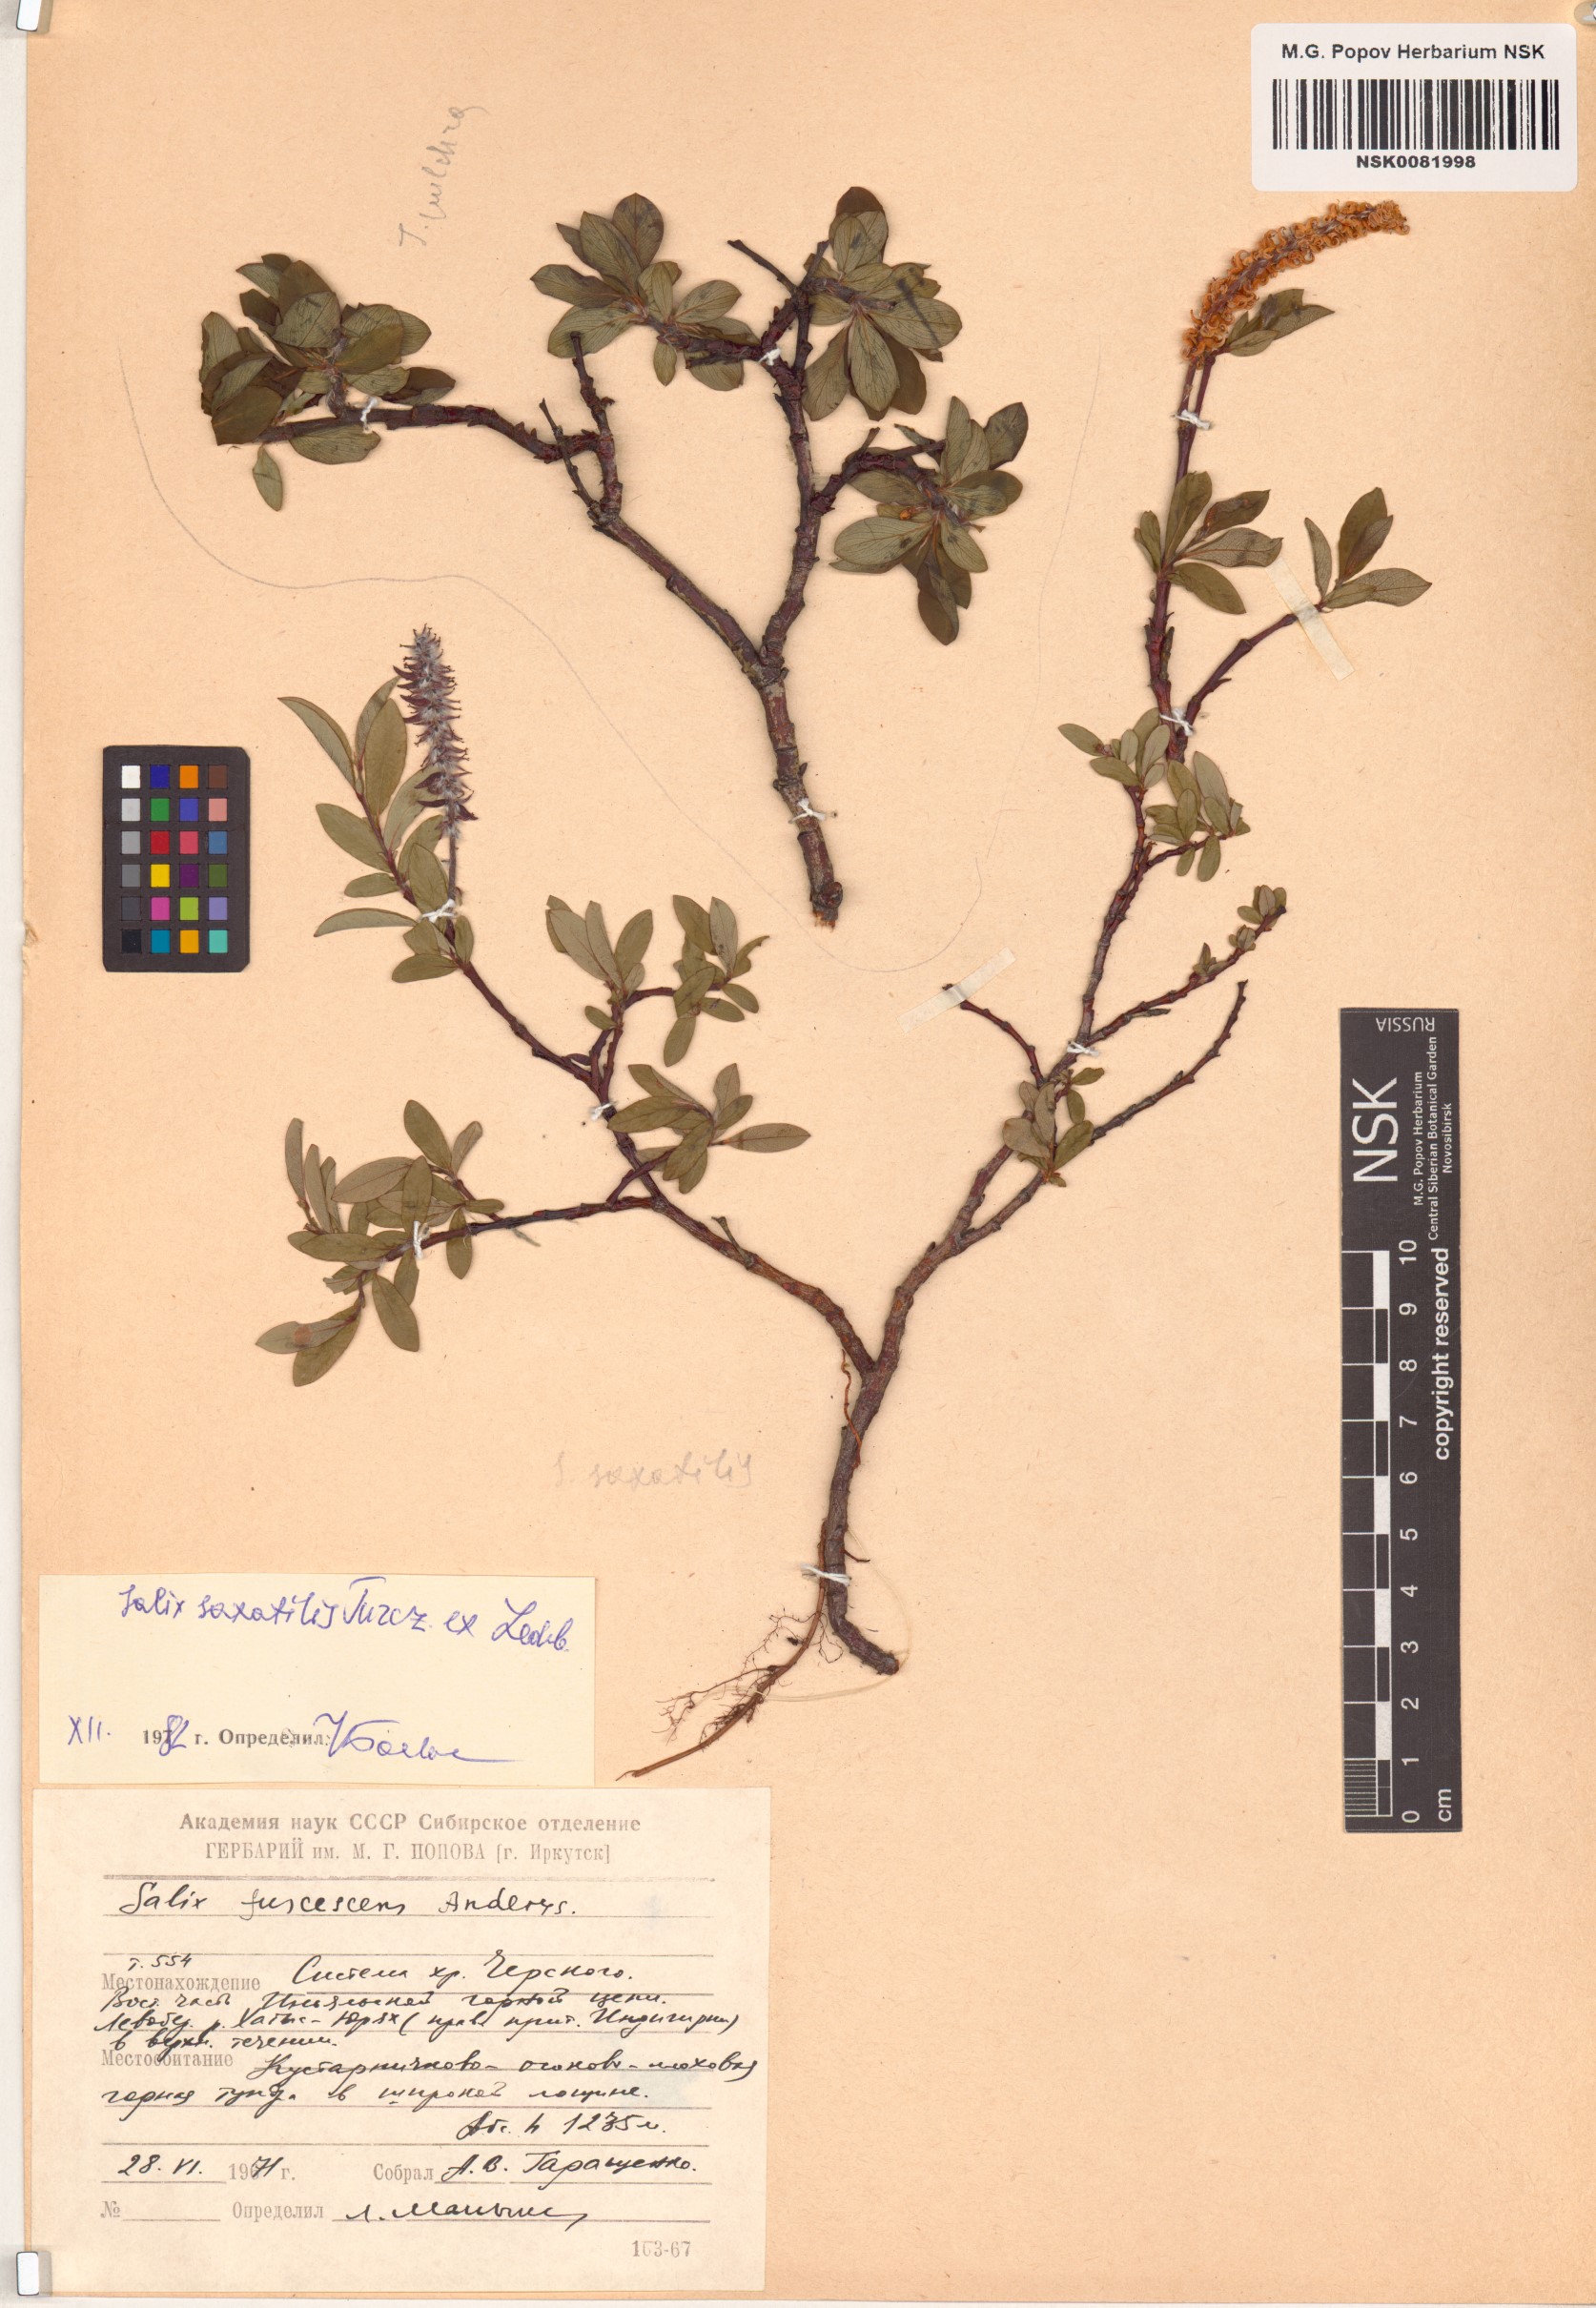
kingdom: Plantae
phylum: Tracheophyta
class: Magnoliopsida
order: Malpighiales
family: Salicaceae
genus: Salix
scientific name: Salix saxatilis
